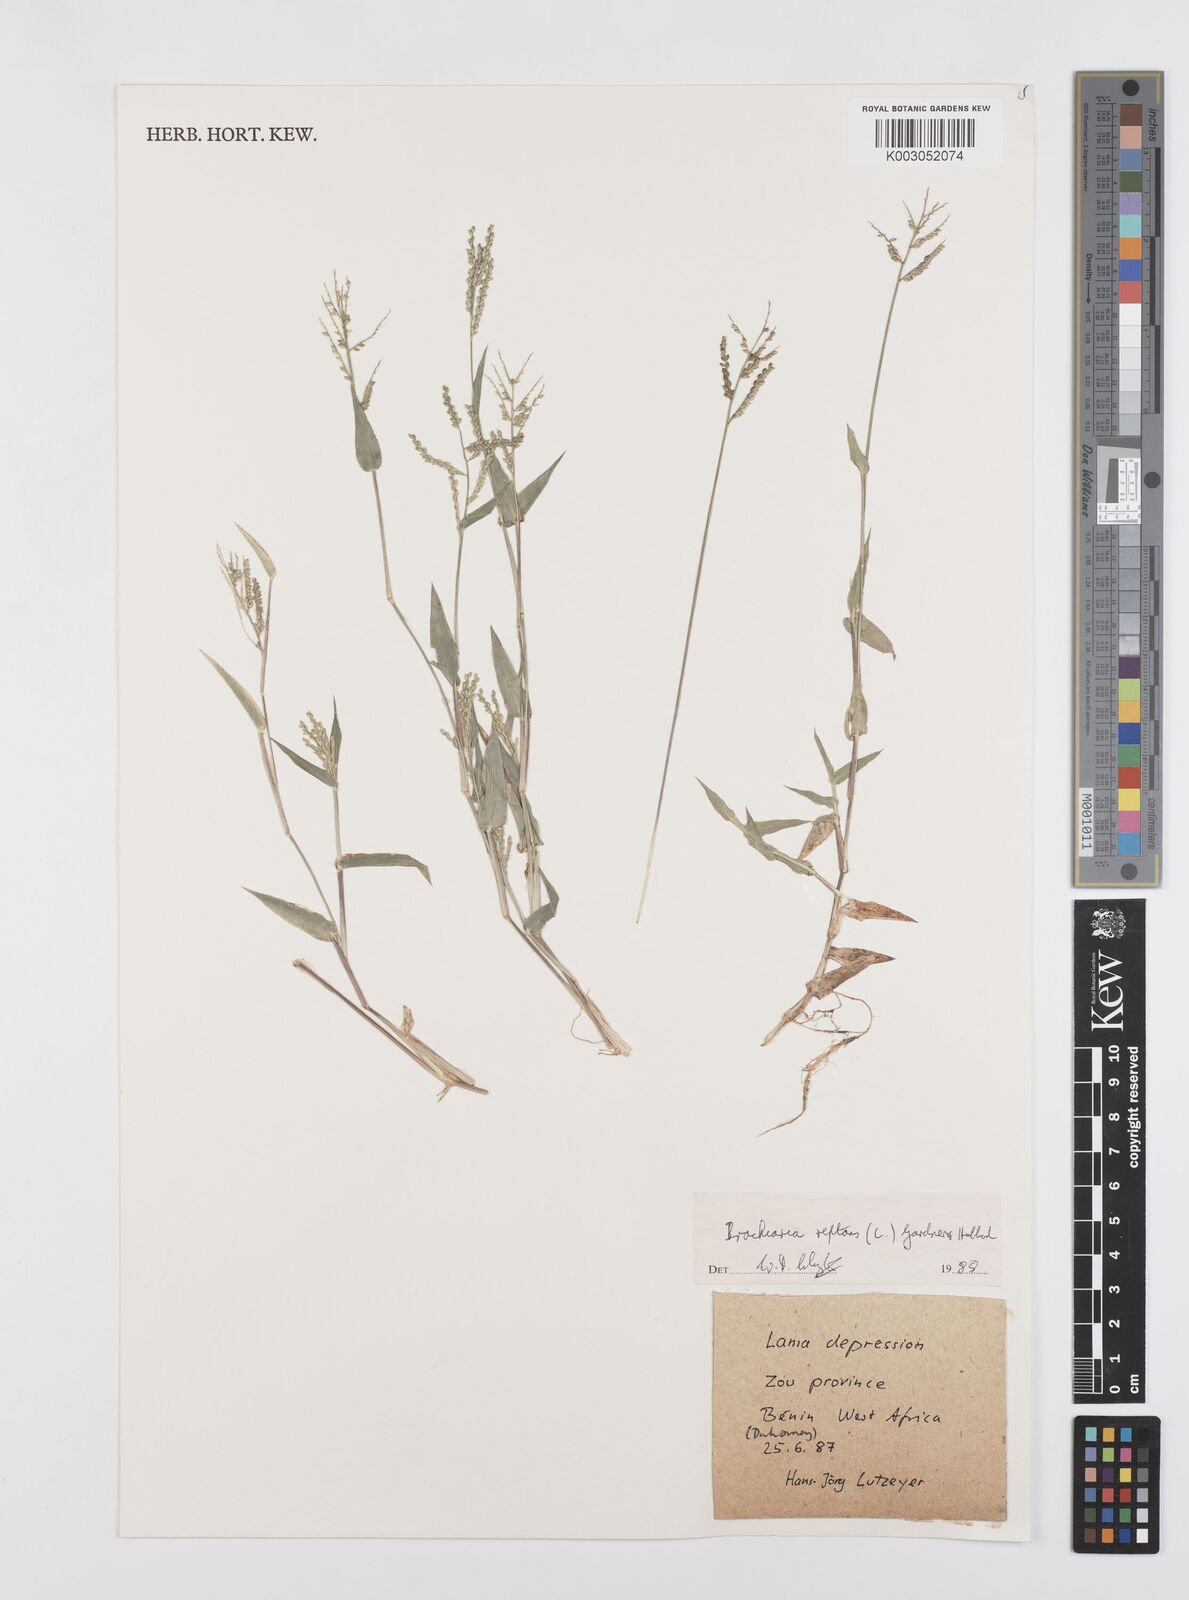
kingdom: Plantae
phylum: Tracheophyta
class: Liliopsida
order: Poales
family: Poaceae
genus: Urochloa
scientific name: Urochloa reptans
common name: Sprawling signalgrass
